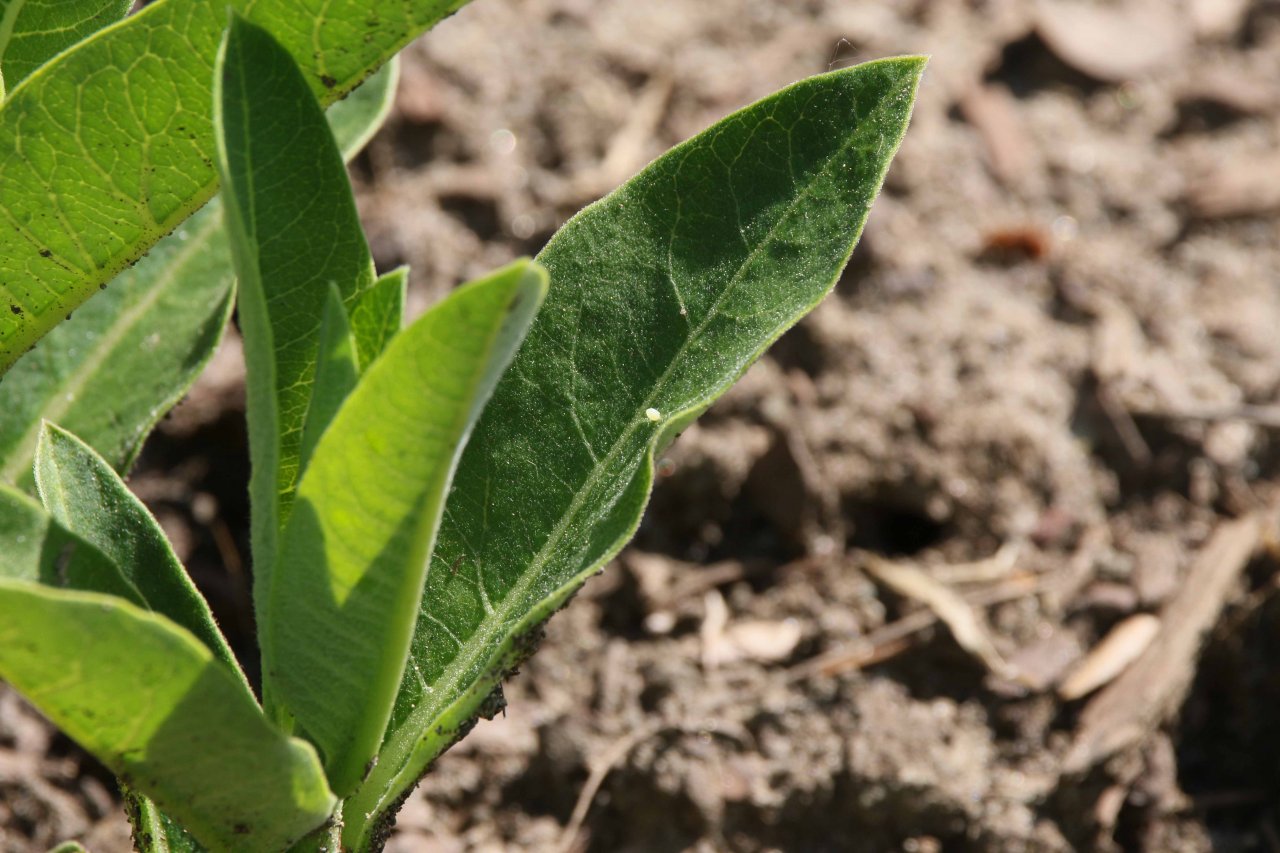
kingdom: Animalia
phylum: Arthropoda
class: Insecta
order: Lepidoptera
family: Nymphalidae
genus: Danaus
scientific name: Danaus plexippus
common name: Monarch
